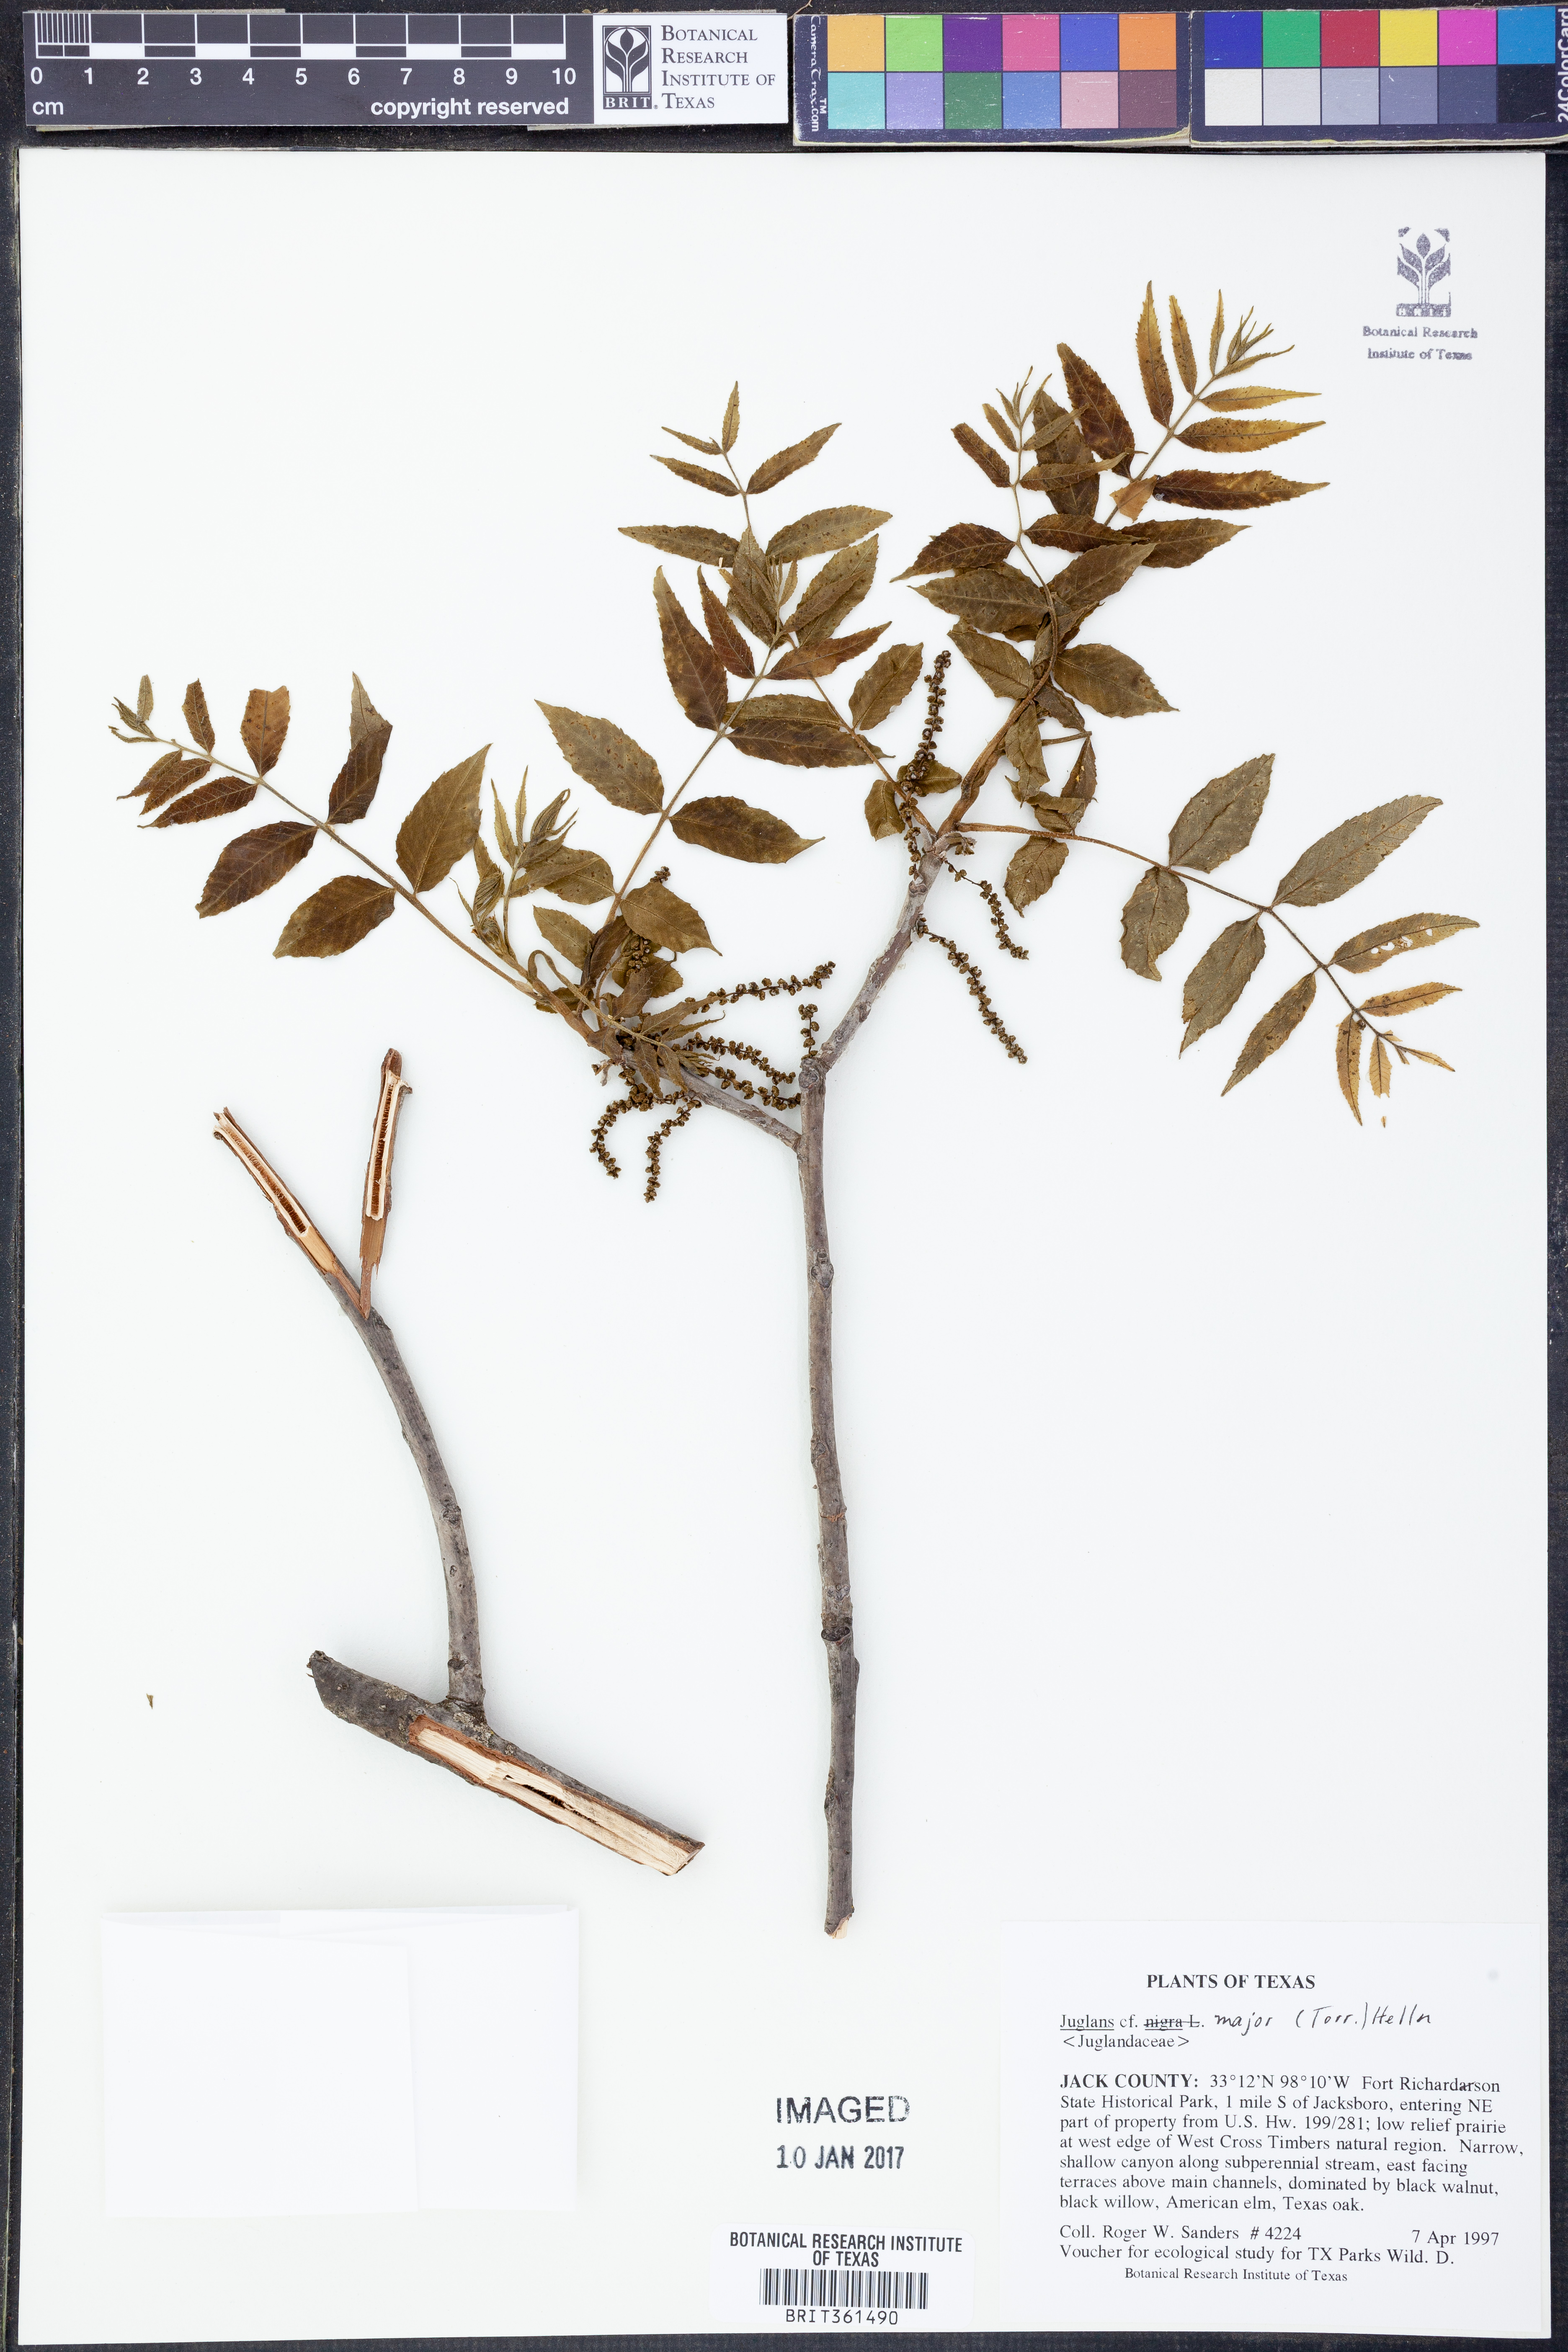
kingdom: Plantae
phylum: Tracheophyta
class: Magnoliopsida
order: Fagales
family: Juglandaceae
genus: Juglans
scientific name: Juglans major
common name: Arizona walnut
